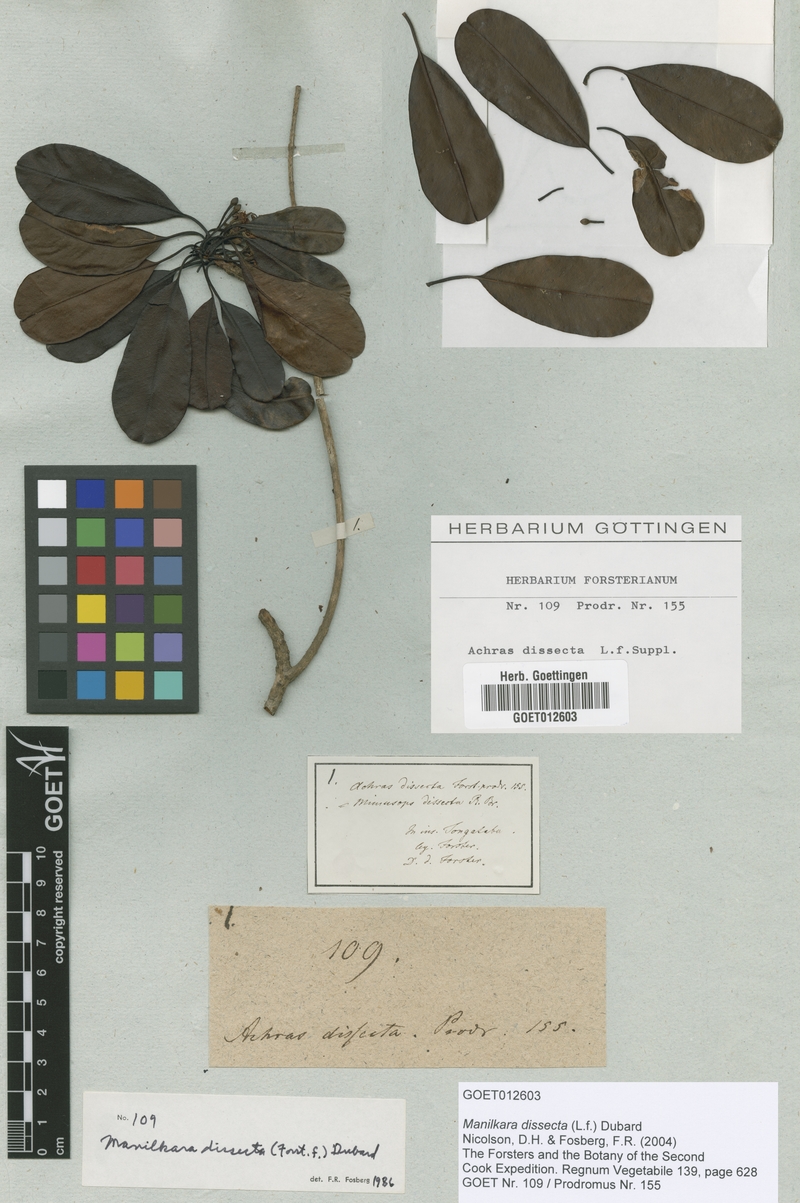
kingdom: Plantae
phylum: Tracheophyta
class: Magnoliopsida
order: Ericales
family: Sapotaceae
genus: Manilkara
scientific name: Manilkara dissecta
